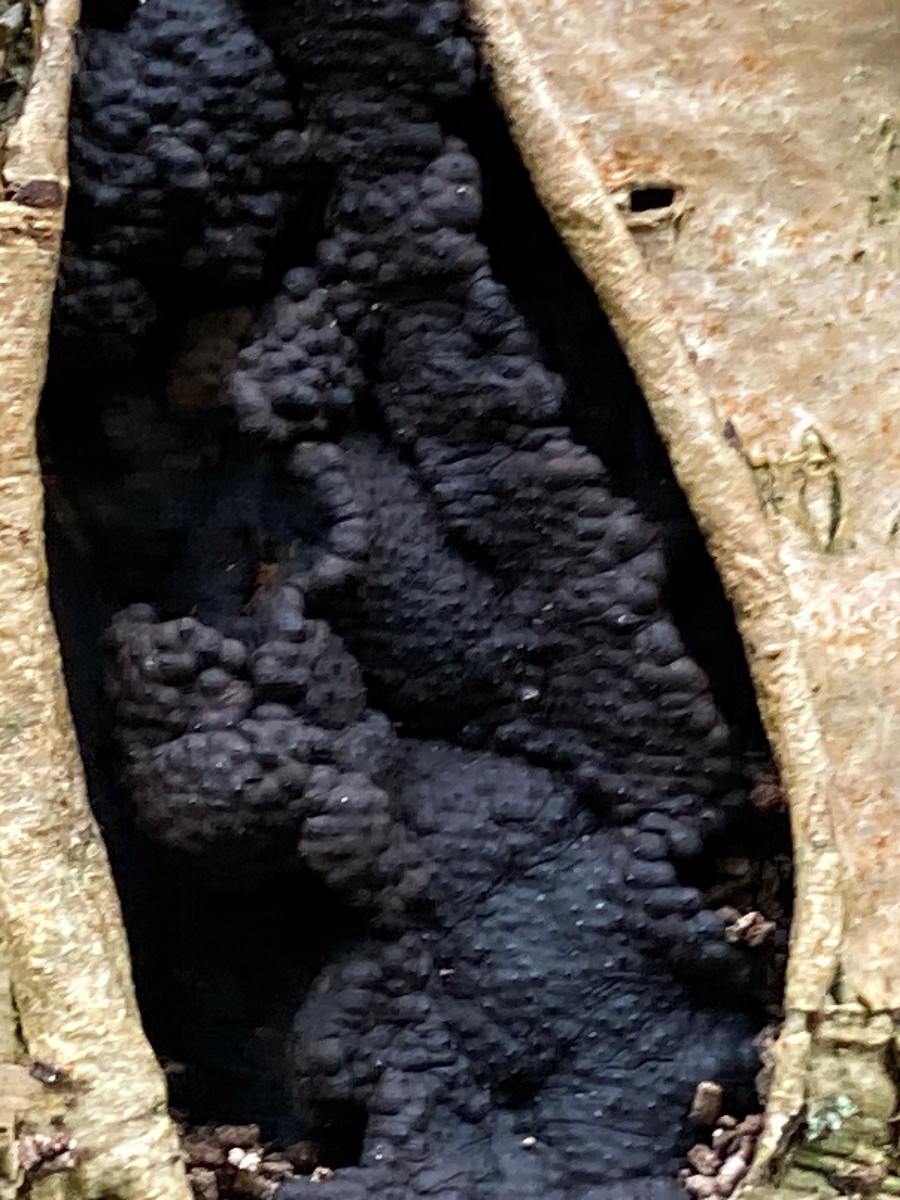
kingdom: Fungi
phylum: Ascomycota
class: Sordariomycetes
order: Xylariales
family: Hypoxylaceae
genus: Jackrogersella
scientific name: Jackrogersella cohaerens
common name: sammenflydende kulbær
